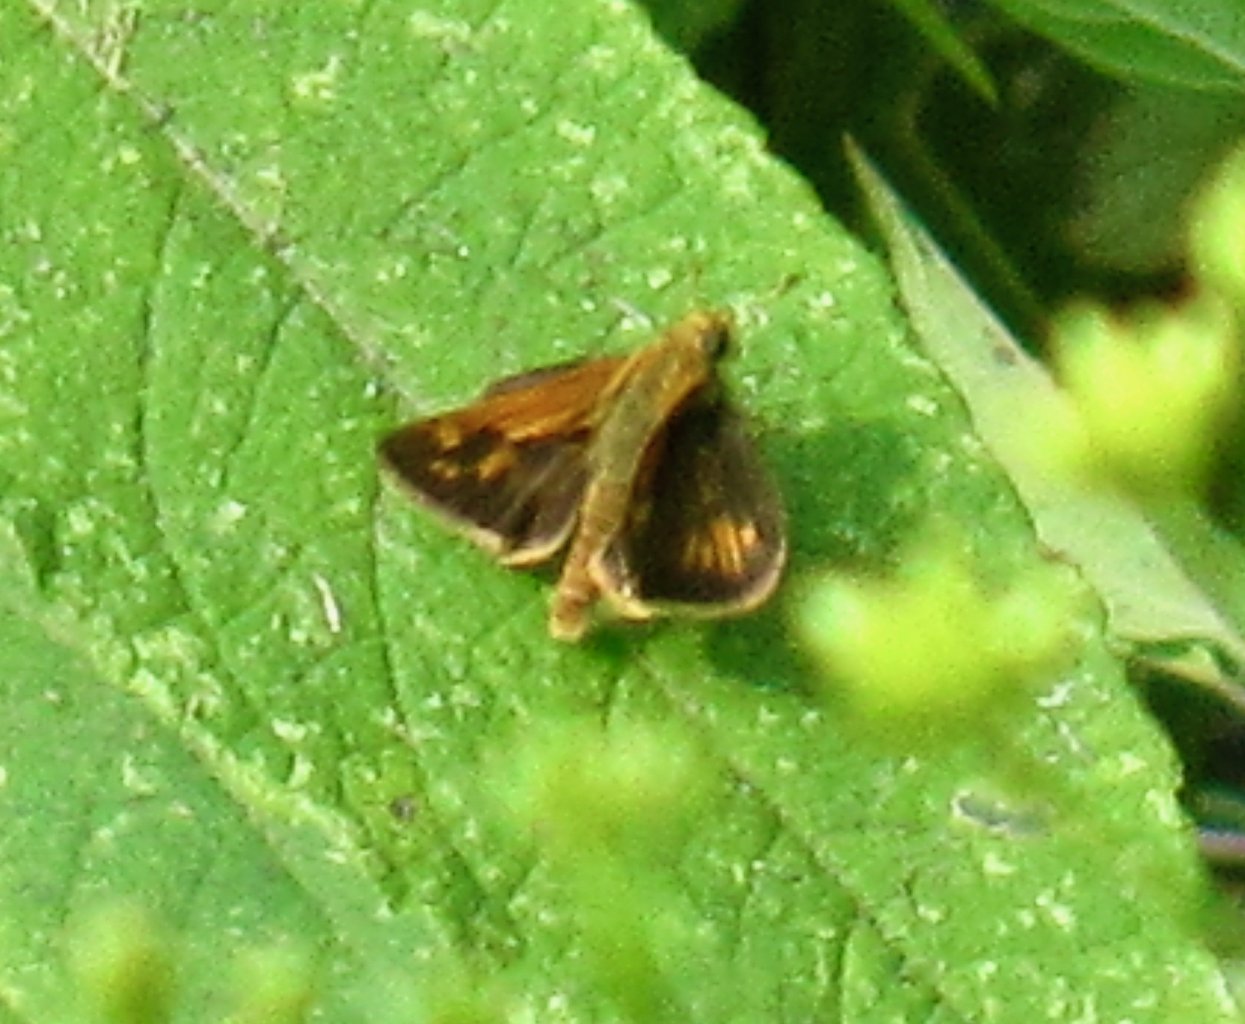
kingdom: Animalia
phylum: Arthropoda
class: Insecta
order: Lepidoptera
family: Hesperiidae
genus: Polites
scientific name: Polites coras
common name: Peck's Skipper
